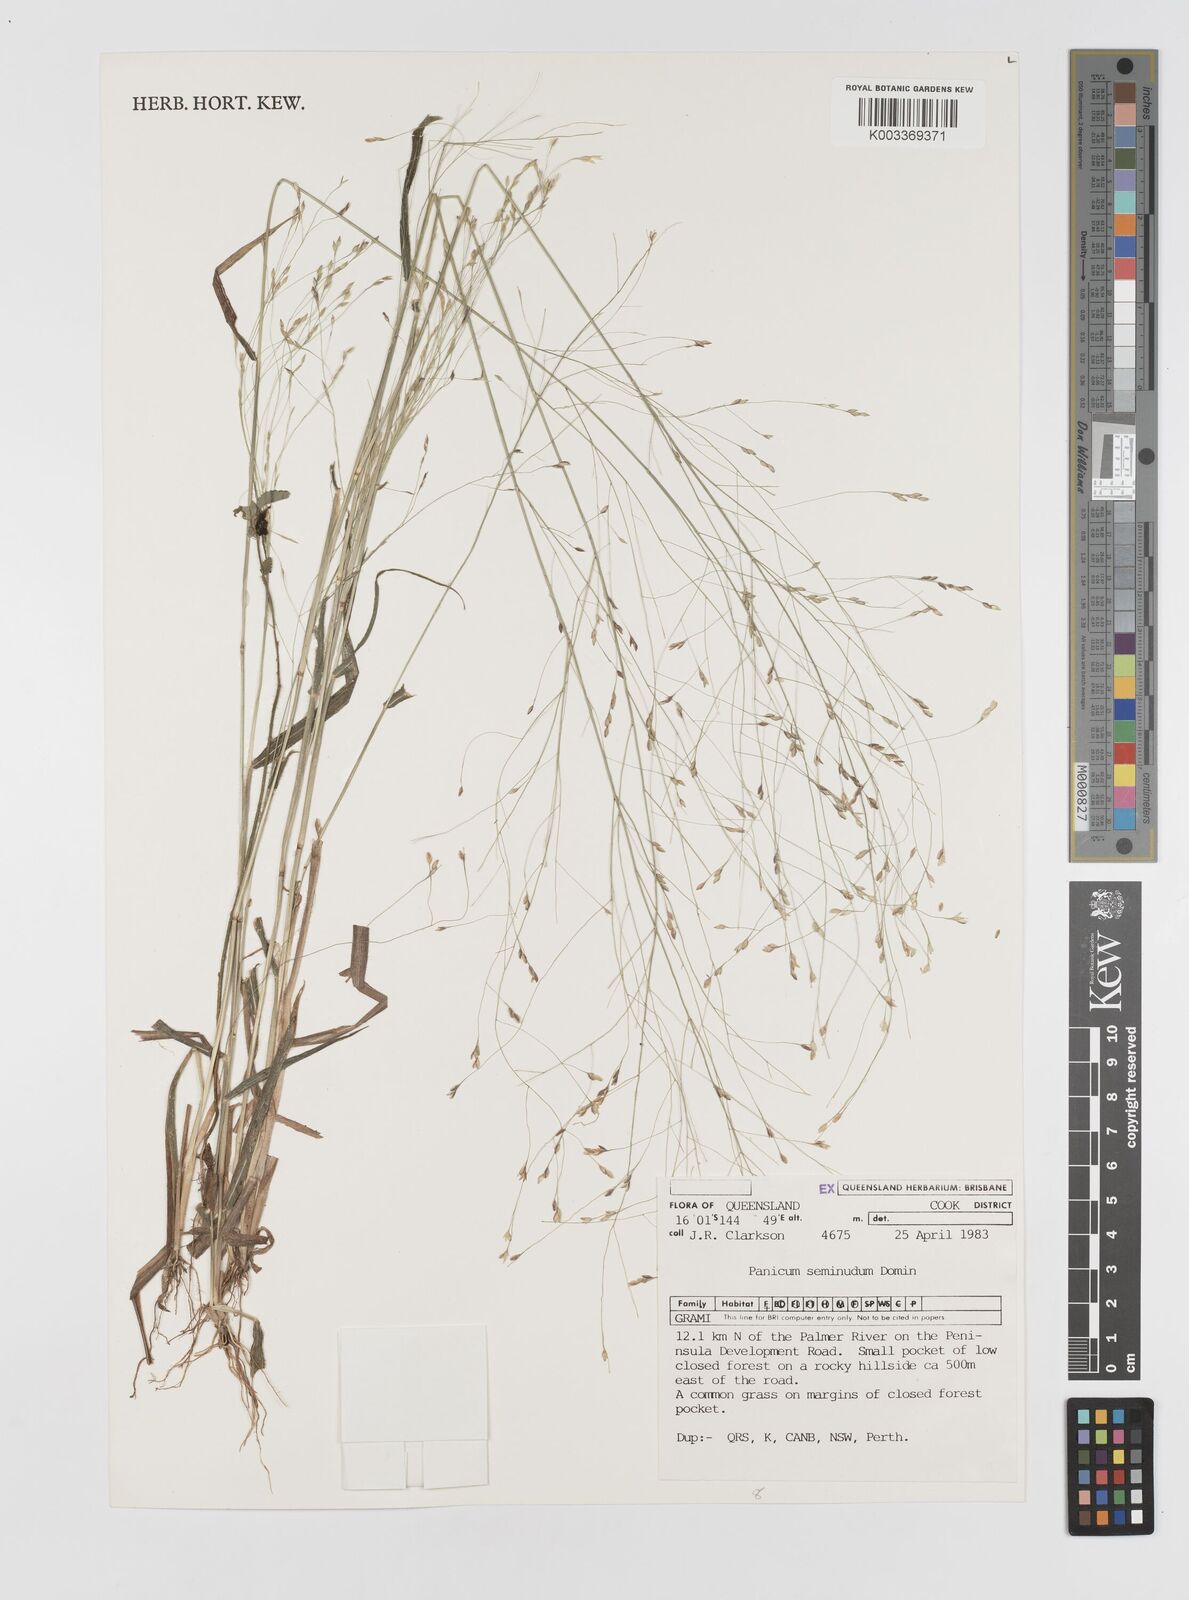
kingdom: Plantae
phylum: Tracheophyta
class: Liliopsida
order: Poales
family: Poaceae
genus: Panicum
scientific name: Panicum seminudum
